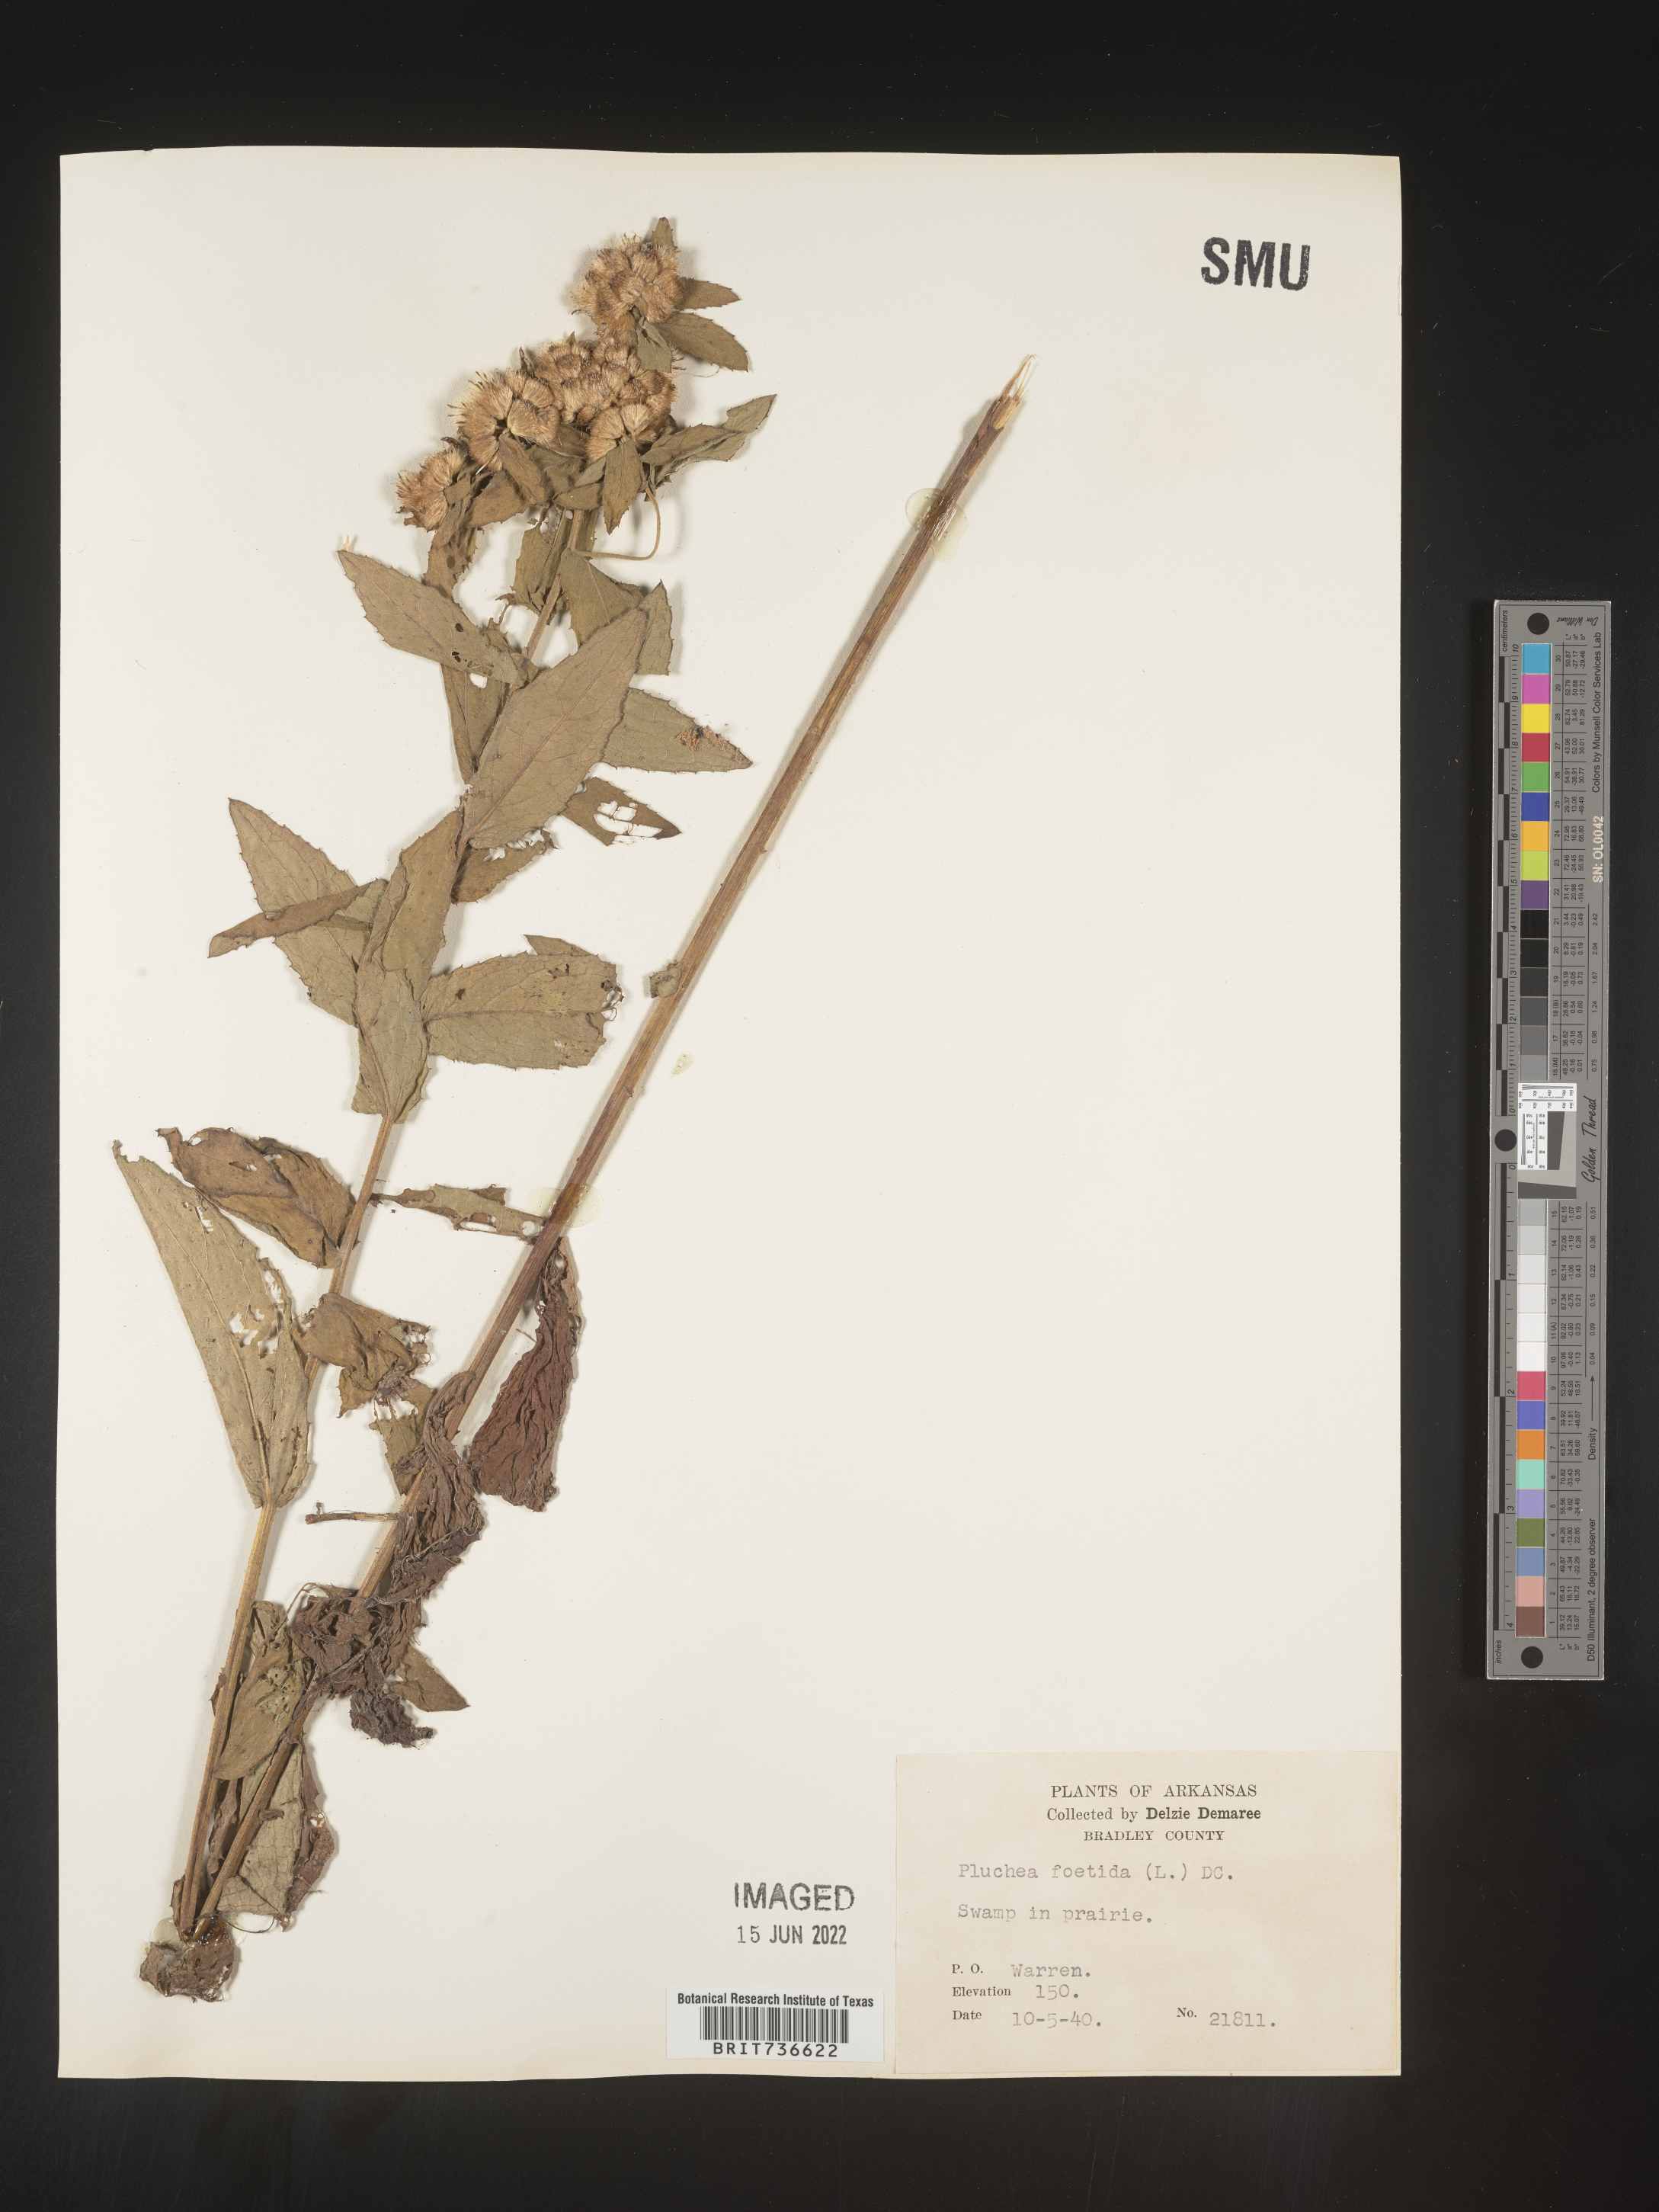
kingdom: Plantae
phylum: Tracheophyta
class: Magnoliopsida
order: Asterales
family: Asteraceae
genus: Pluchea
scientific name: Pluchea foetida
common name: Stinking camphorweed
